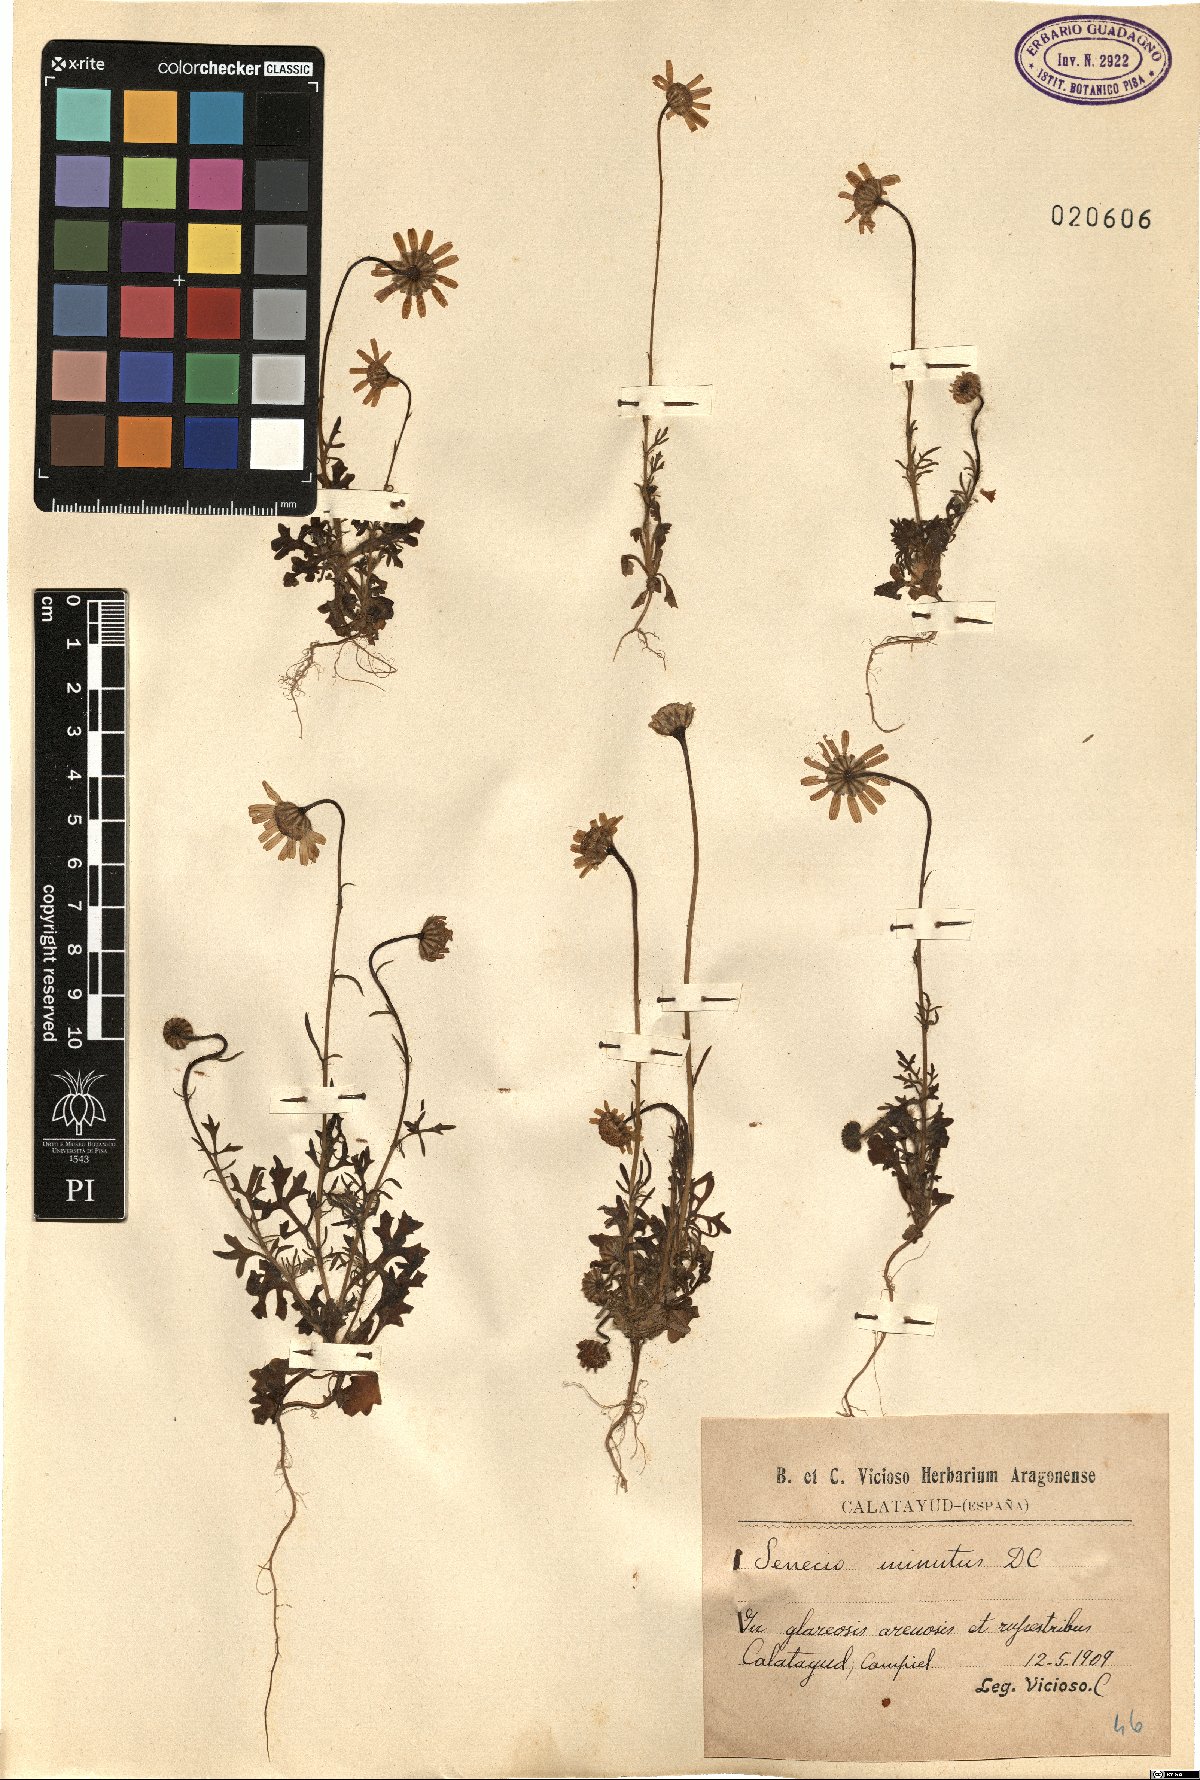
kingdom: Plantae
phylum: Tracheophyta
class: Magnoliopsida
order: Asterales
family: Asteraceae
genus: Jacobaea
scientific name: Jacobaea minuta
